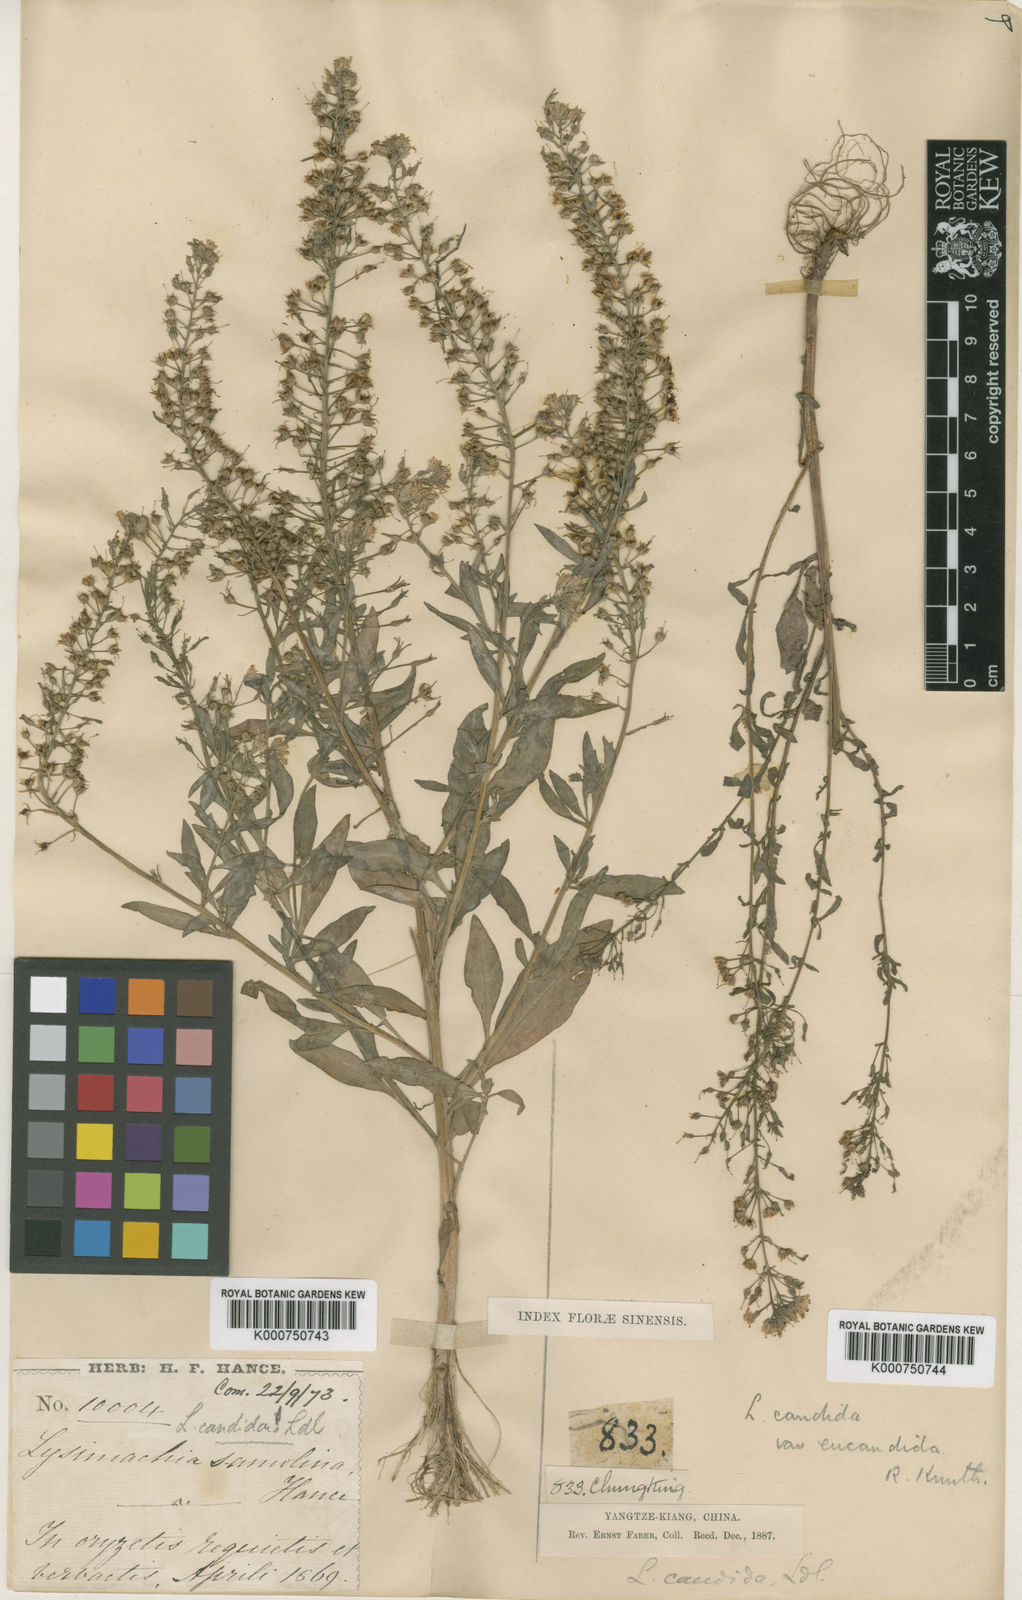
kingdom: Plantae
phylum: Tracheophyta
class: Magnoliopsida
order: Ericales
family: Primulaceae
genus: Lysimachia
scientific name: Lysimachia candida
